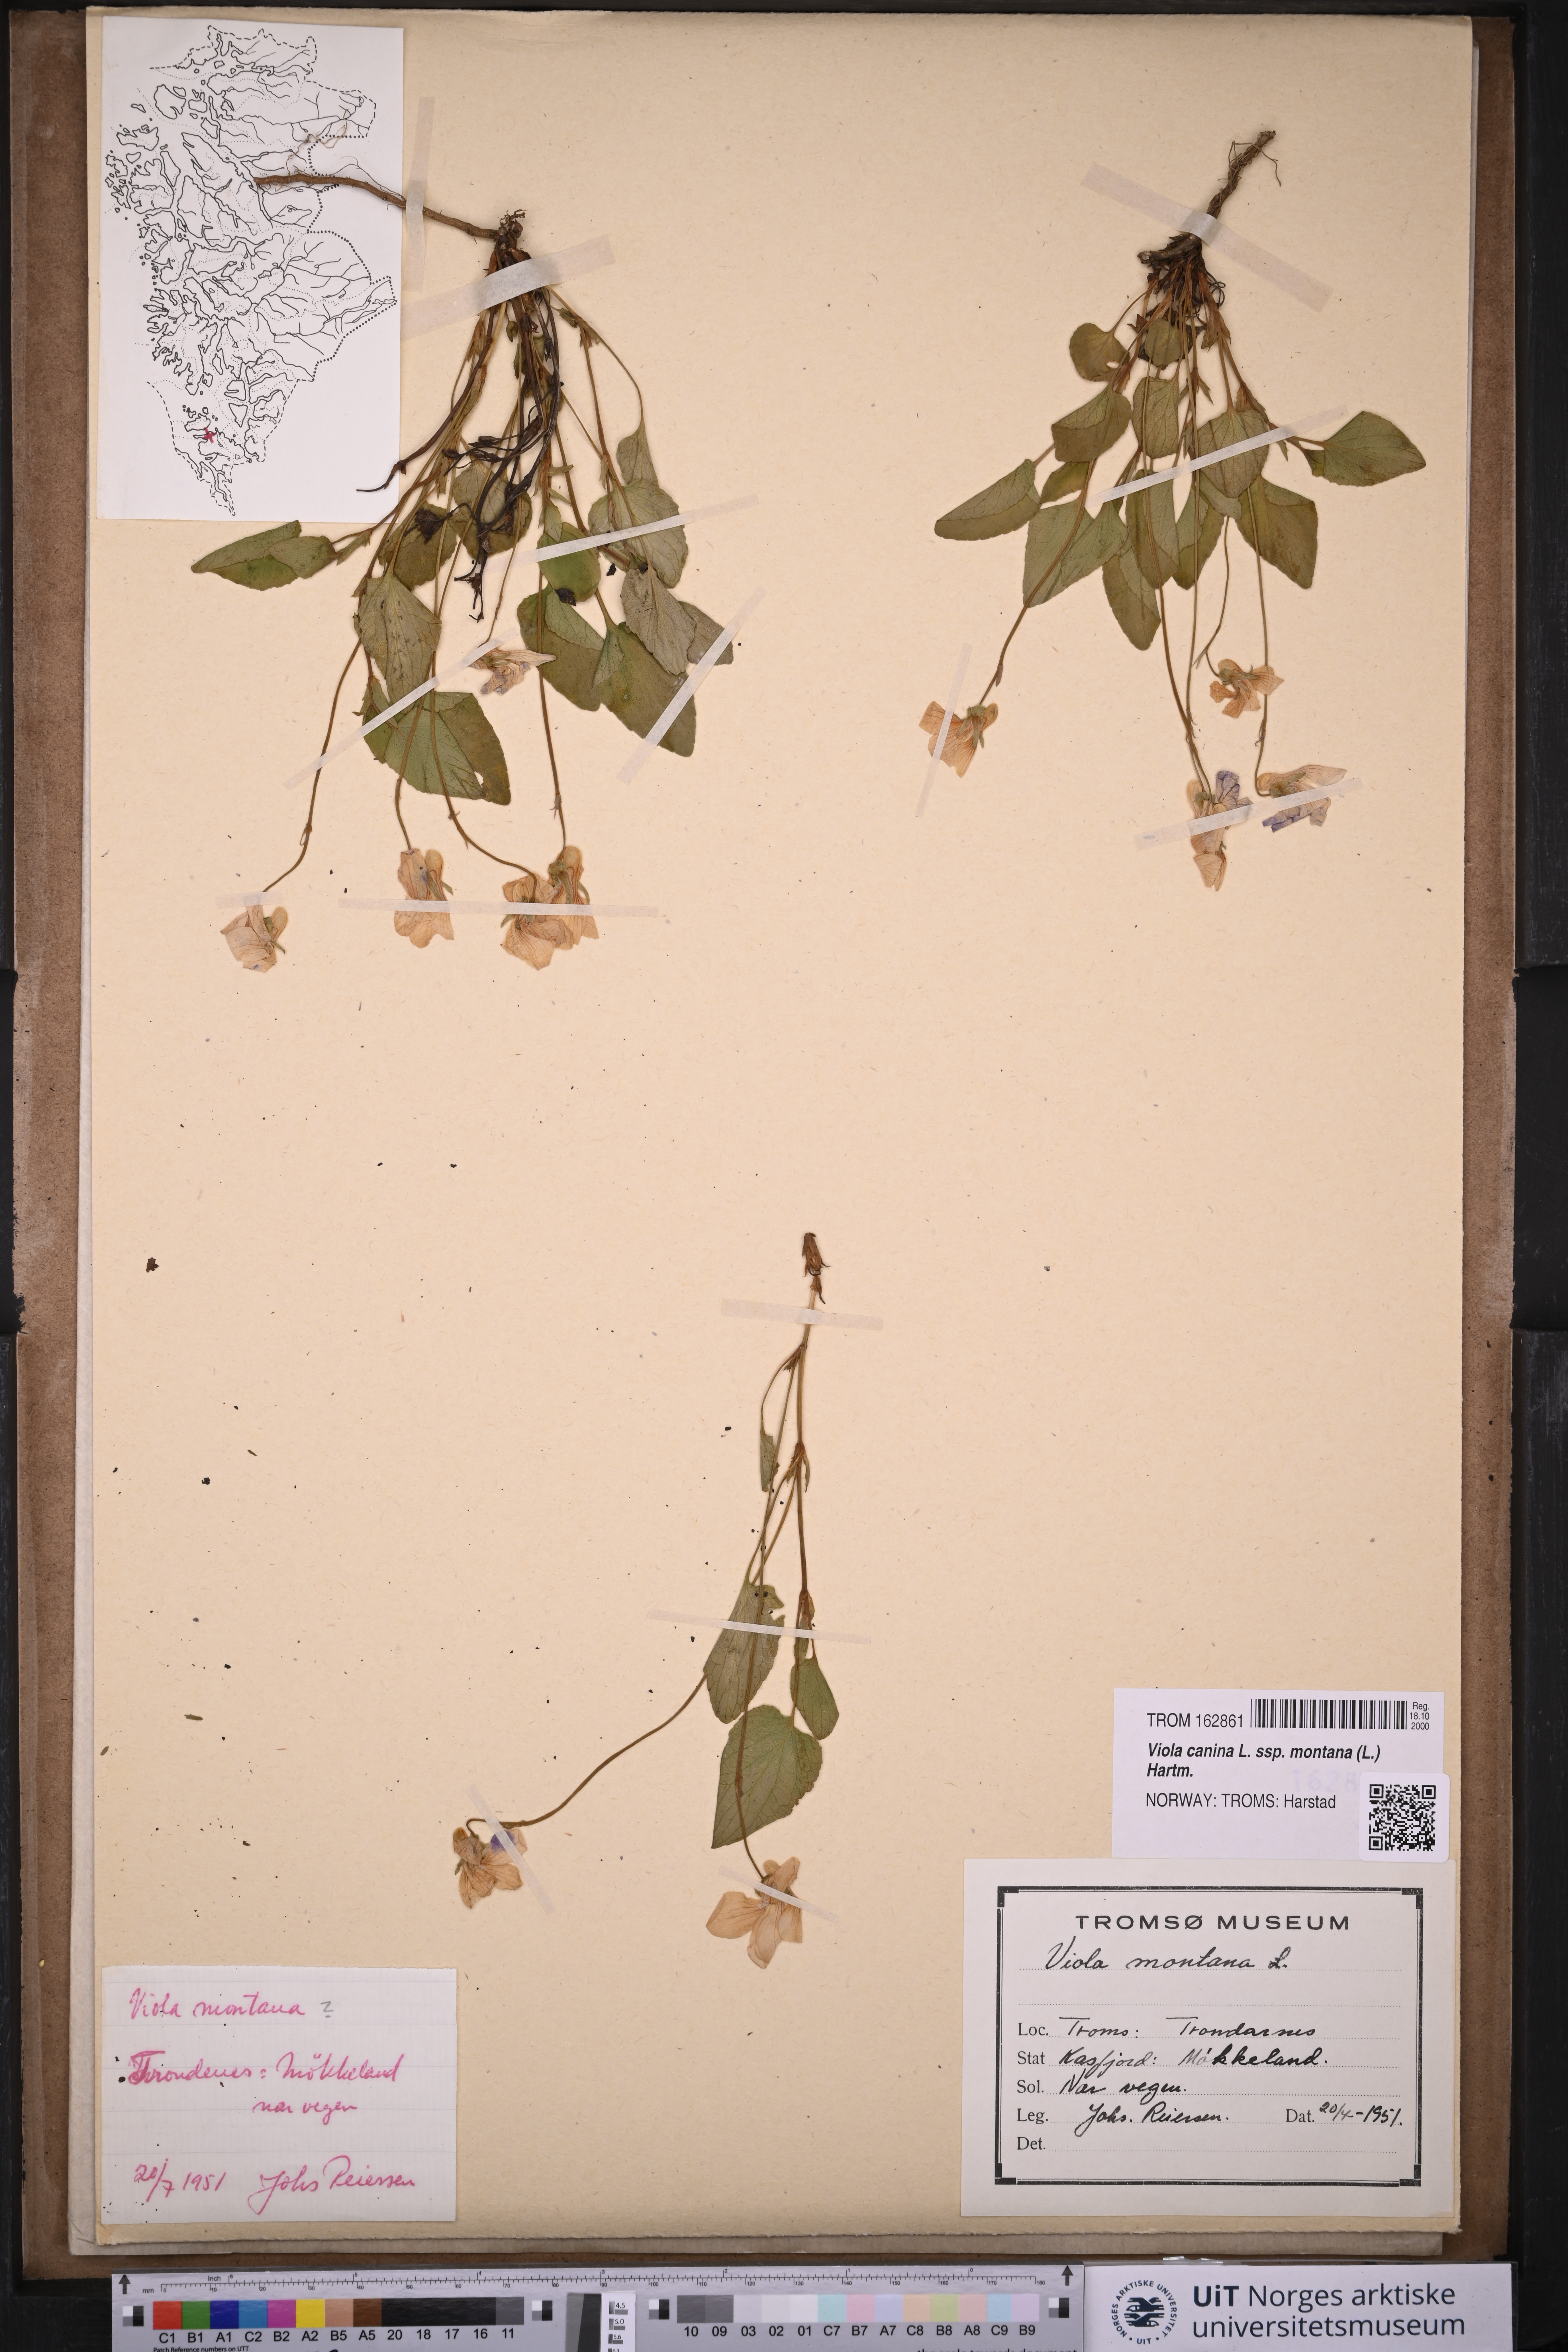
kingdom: Plantae
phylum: Tracheophyta
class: Magnoliopsida
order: Malpighiales
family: Violaceae
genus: Viola
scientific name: Viola ruppii
